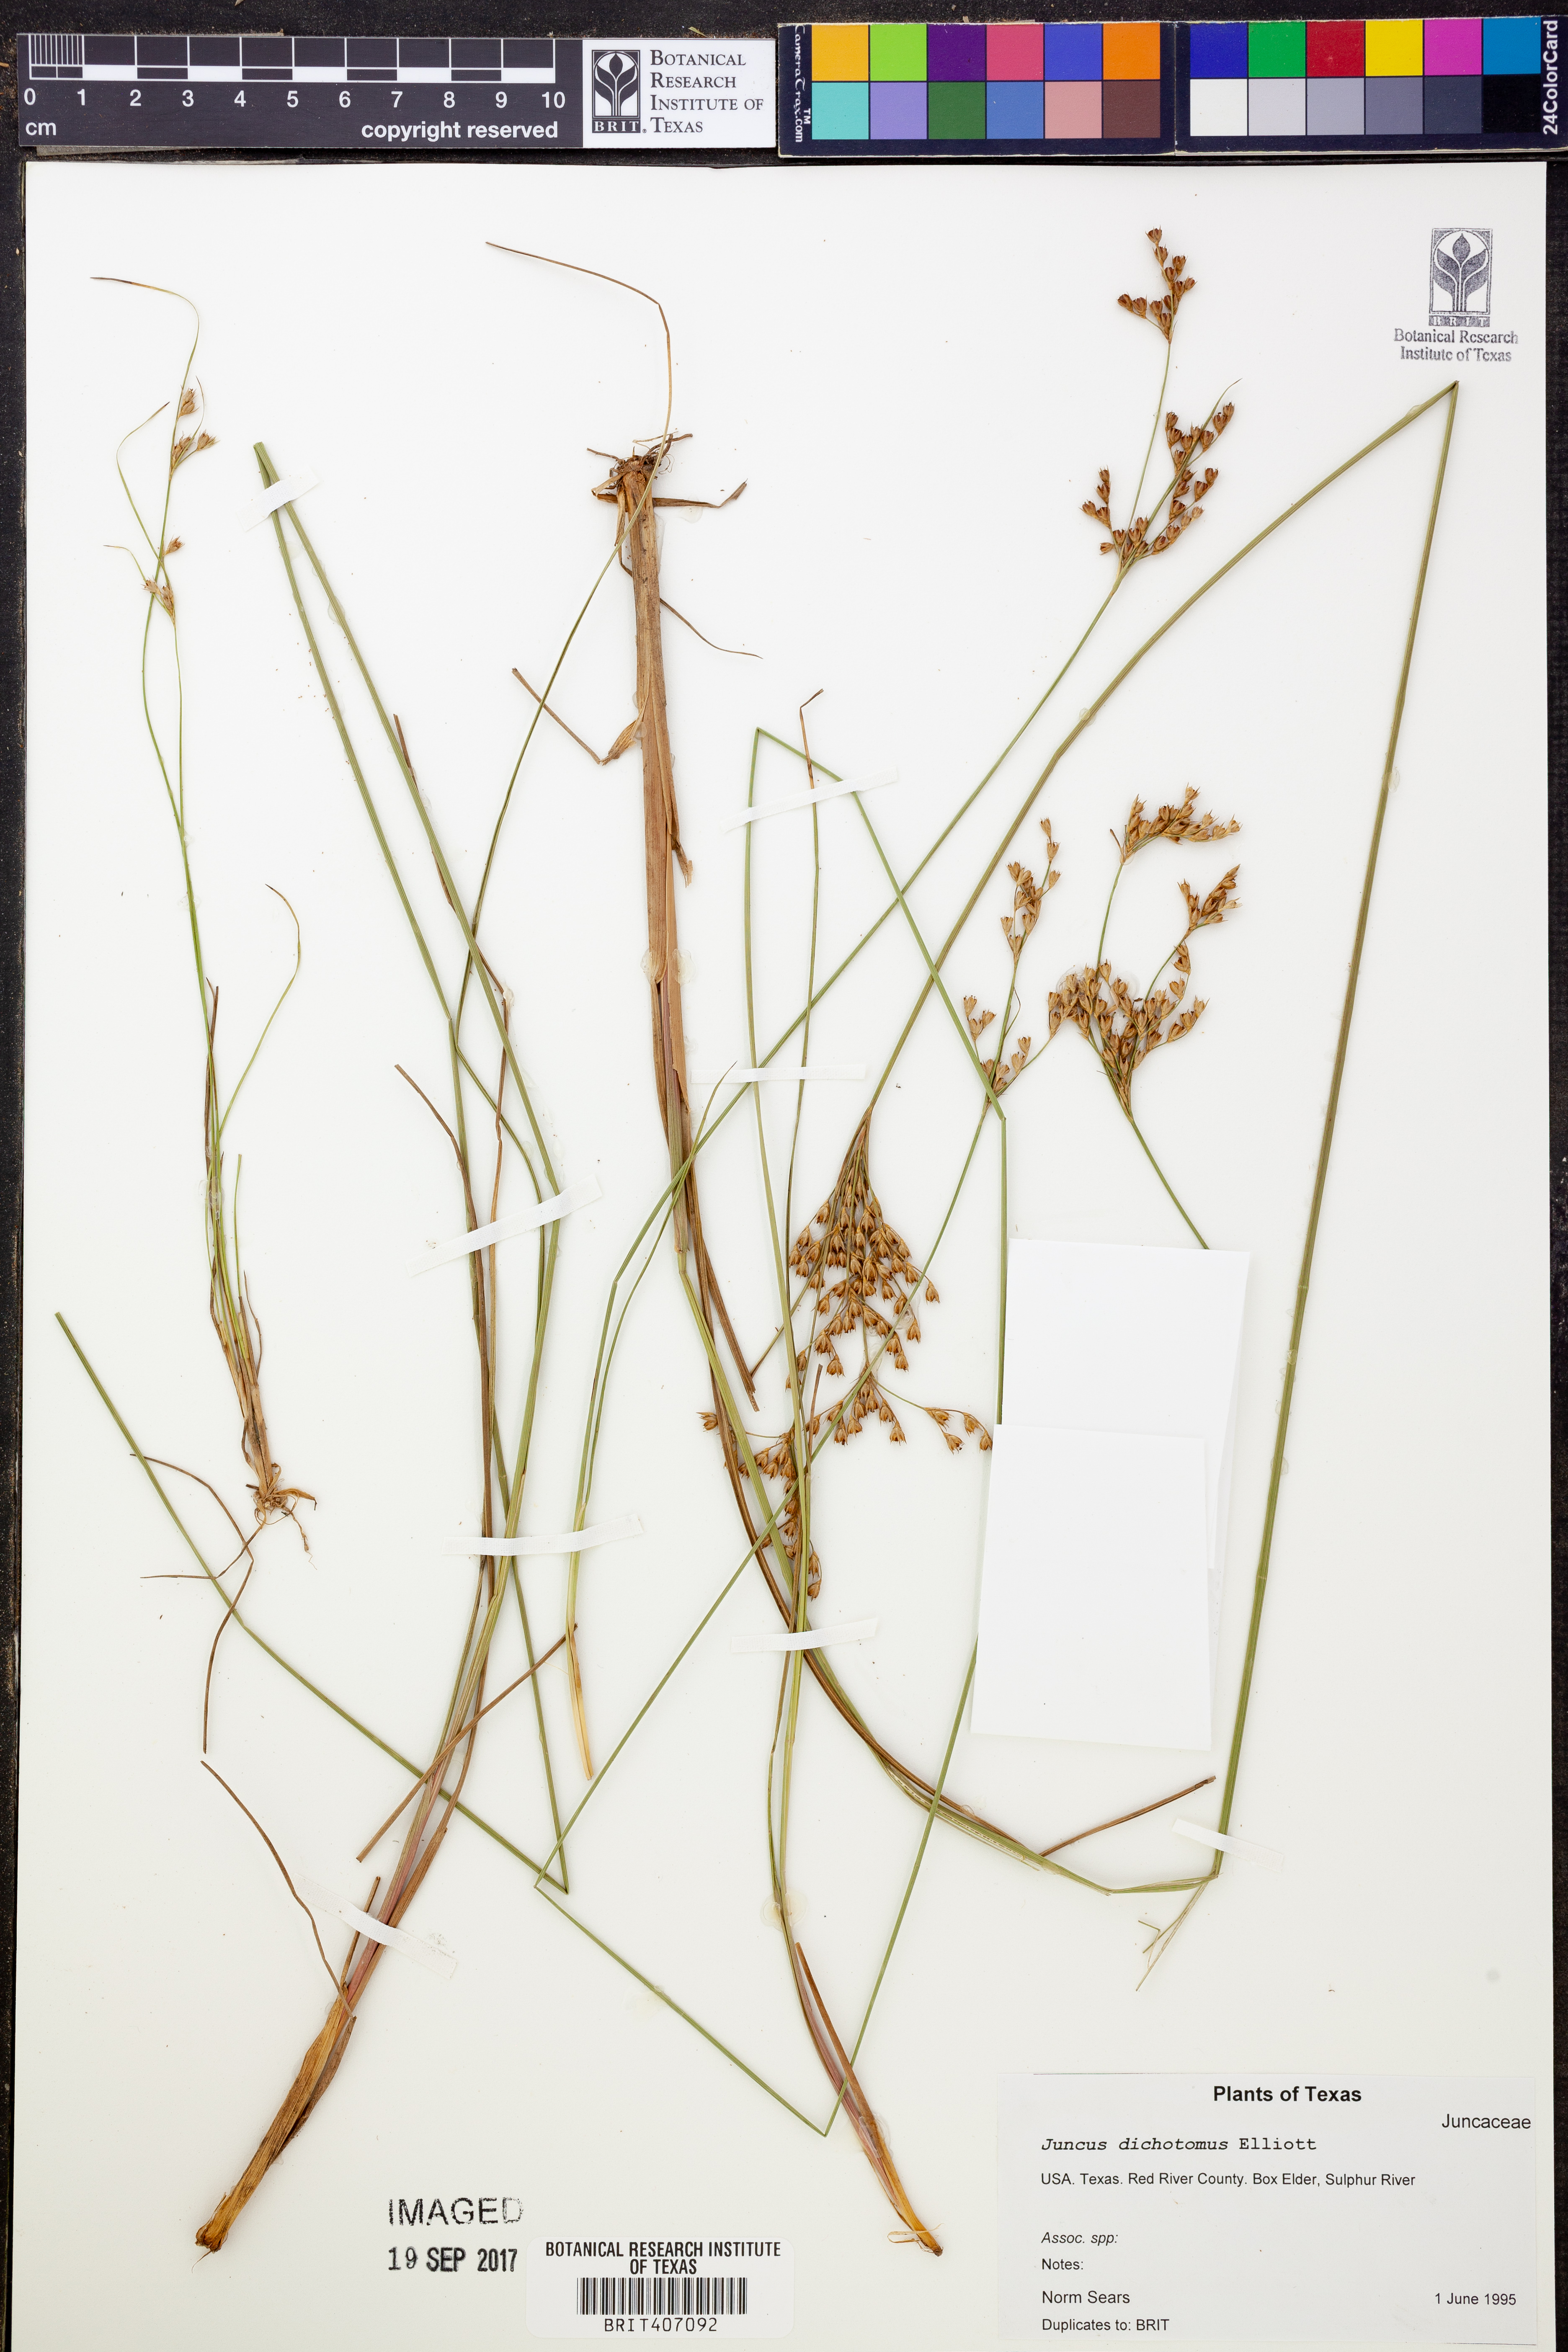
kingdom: Plantae
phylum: Tracheophyta
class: Liliopsida
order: Poales
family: Juncaceae
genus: Juncus
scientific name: Juncus dichotomus
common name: Forked rush
